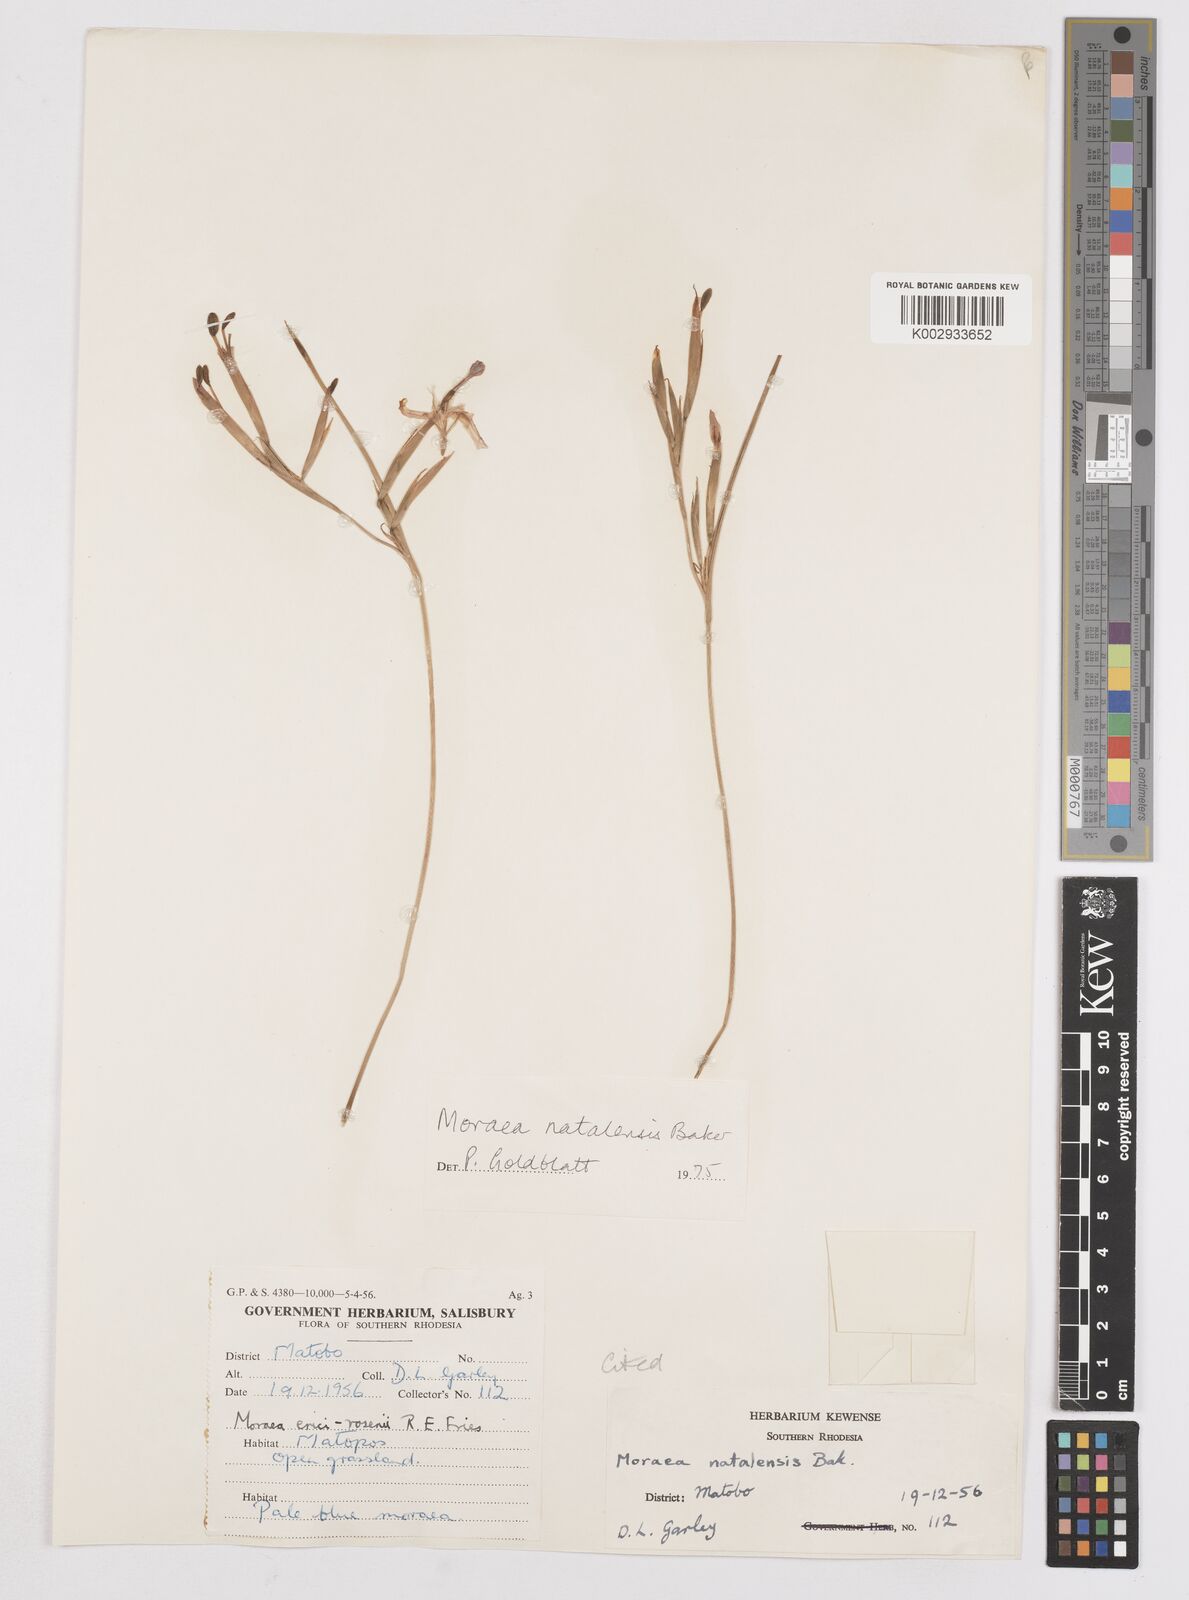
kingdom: Plantae
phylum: Tracheophyta
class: Liliopsida
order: Asparagales
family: Iridaceae
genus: Moraea
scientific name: Moraea natalensis
